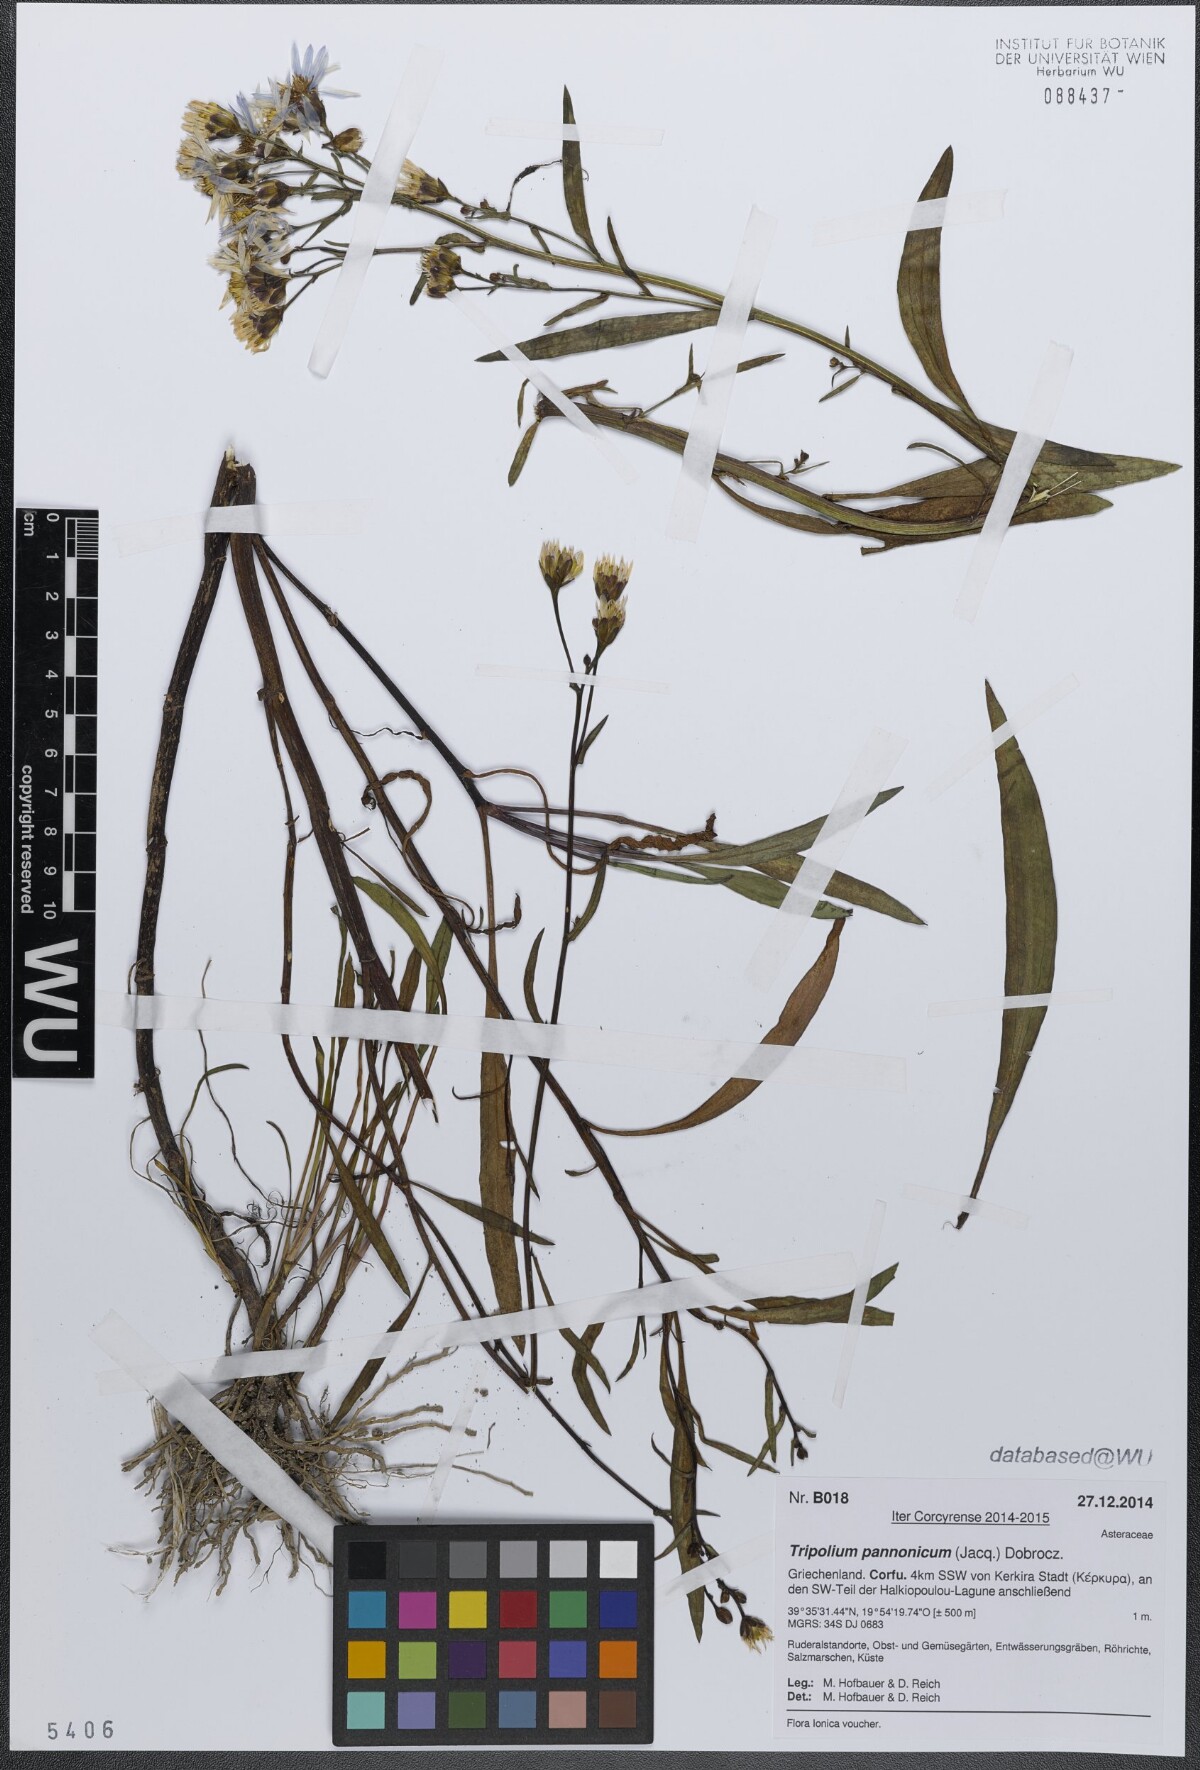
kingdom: Plantae
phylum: Tracheophyta
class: Magnoliopsida
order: Asterales
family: Asteraceae
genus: Tripolium
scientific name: Tripolium pannonicum
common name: Sea aster
